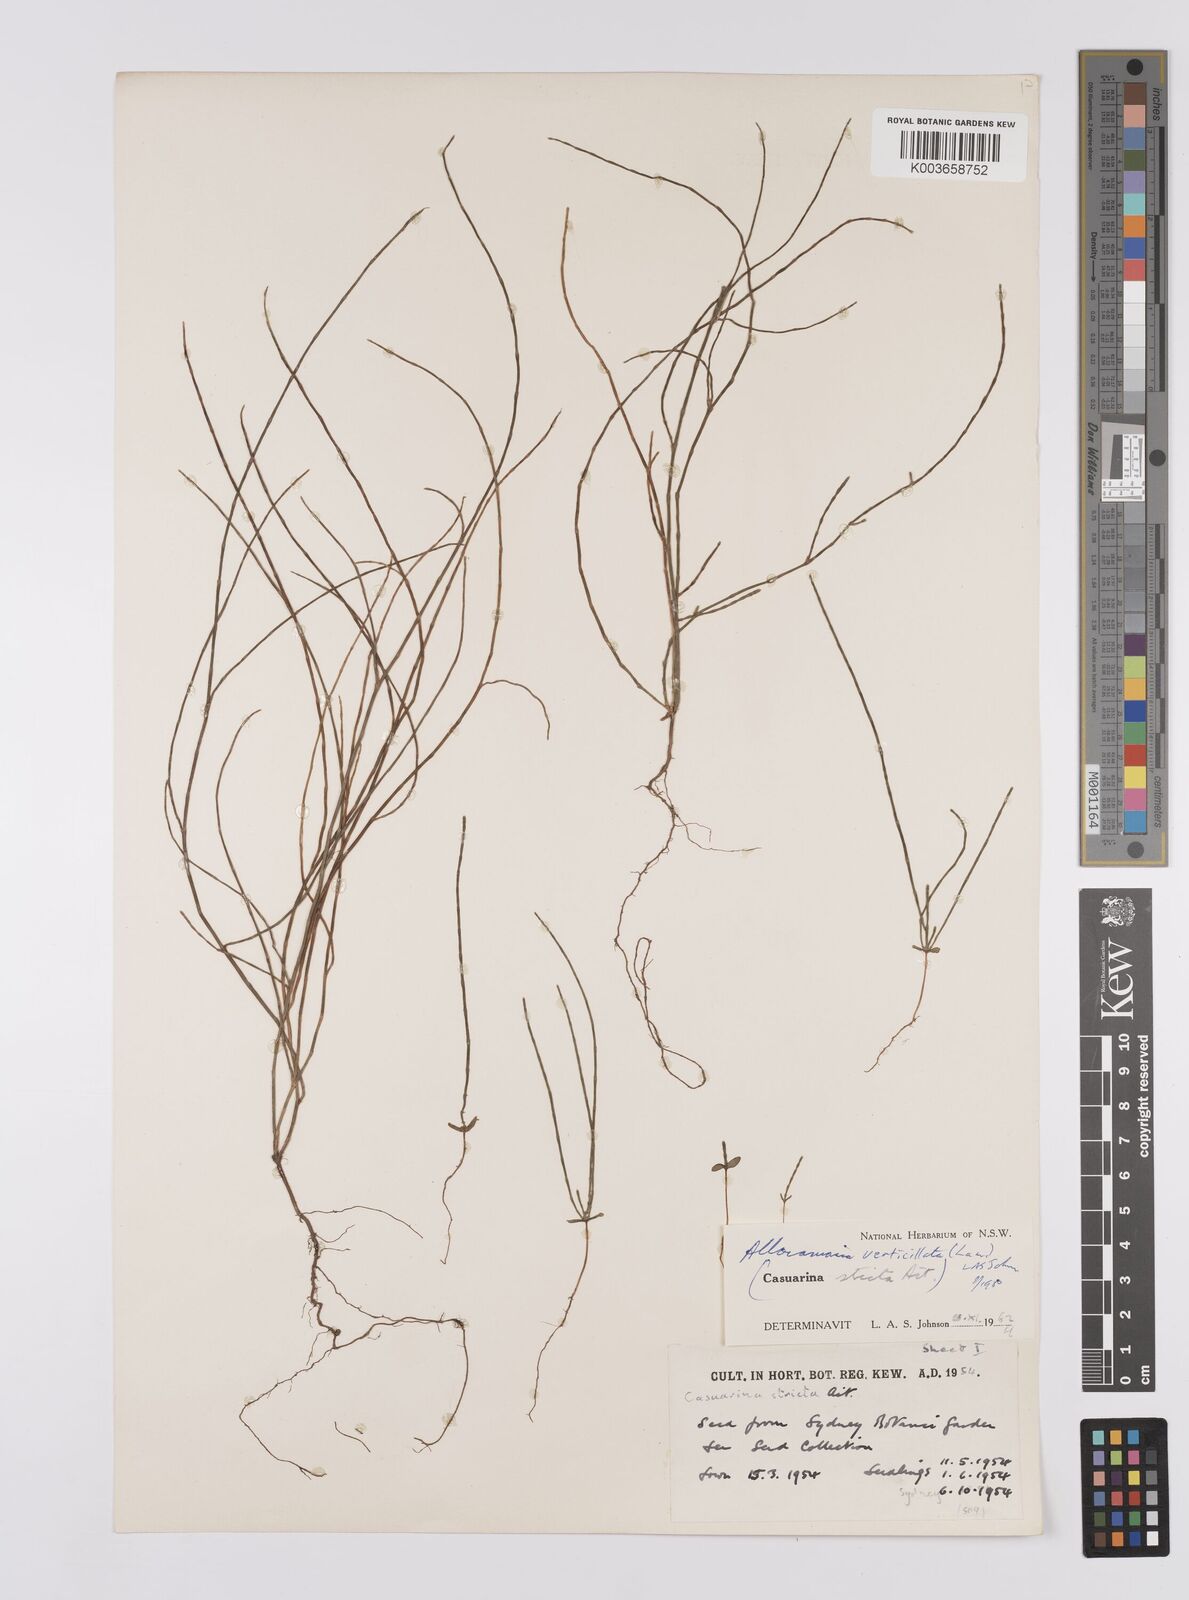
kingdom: Plantae
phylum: Tracheophyta
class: Magnoliopsida
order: Fagales
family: Casuarinaceae
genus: Allocasuarina
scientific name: Allocasuarina verticillata
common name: Drooping she-oak
